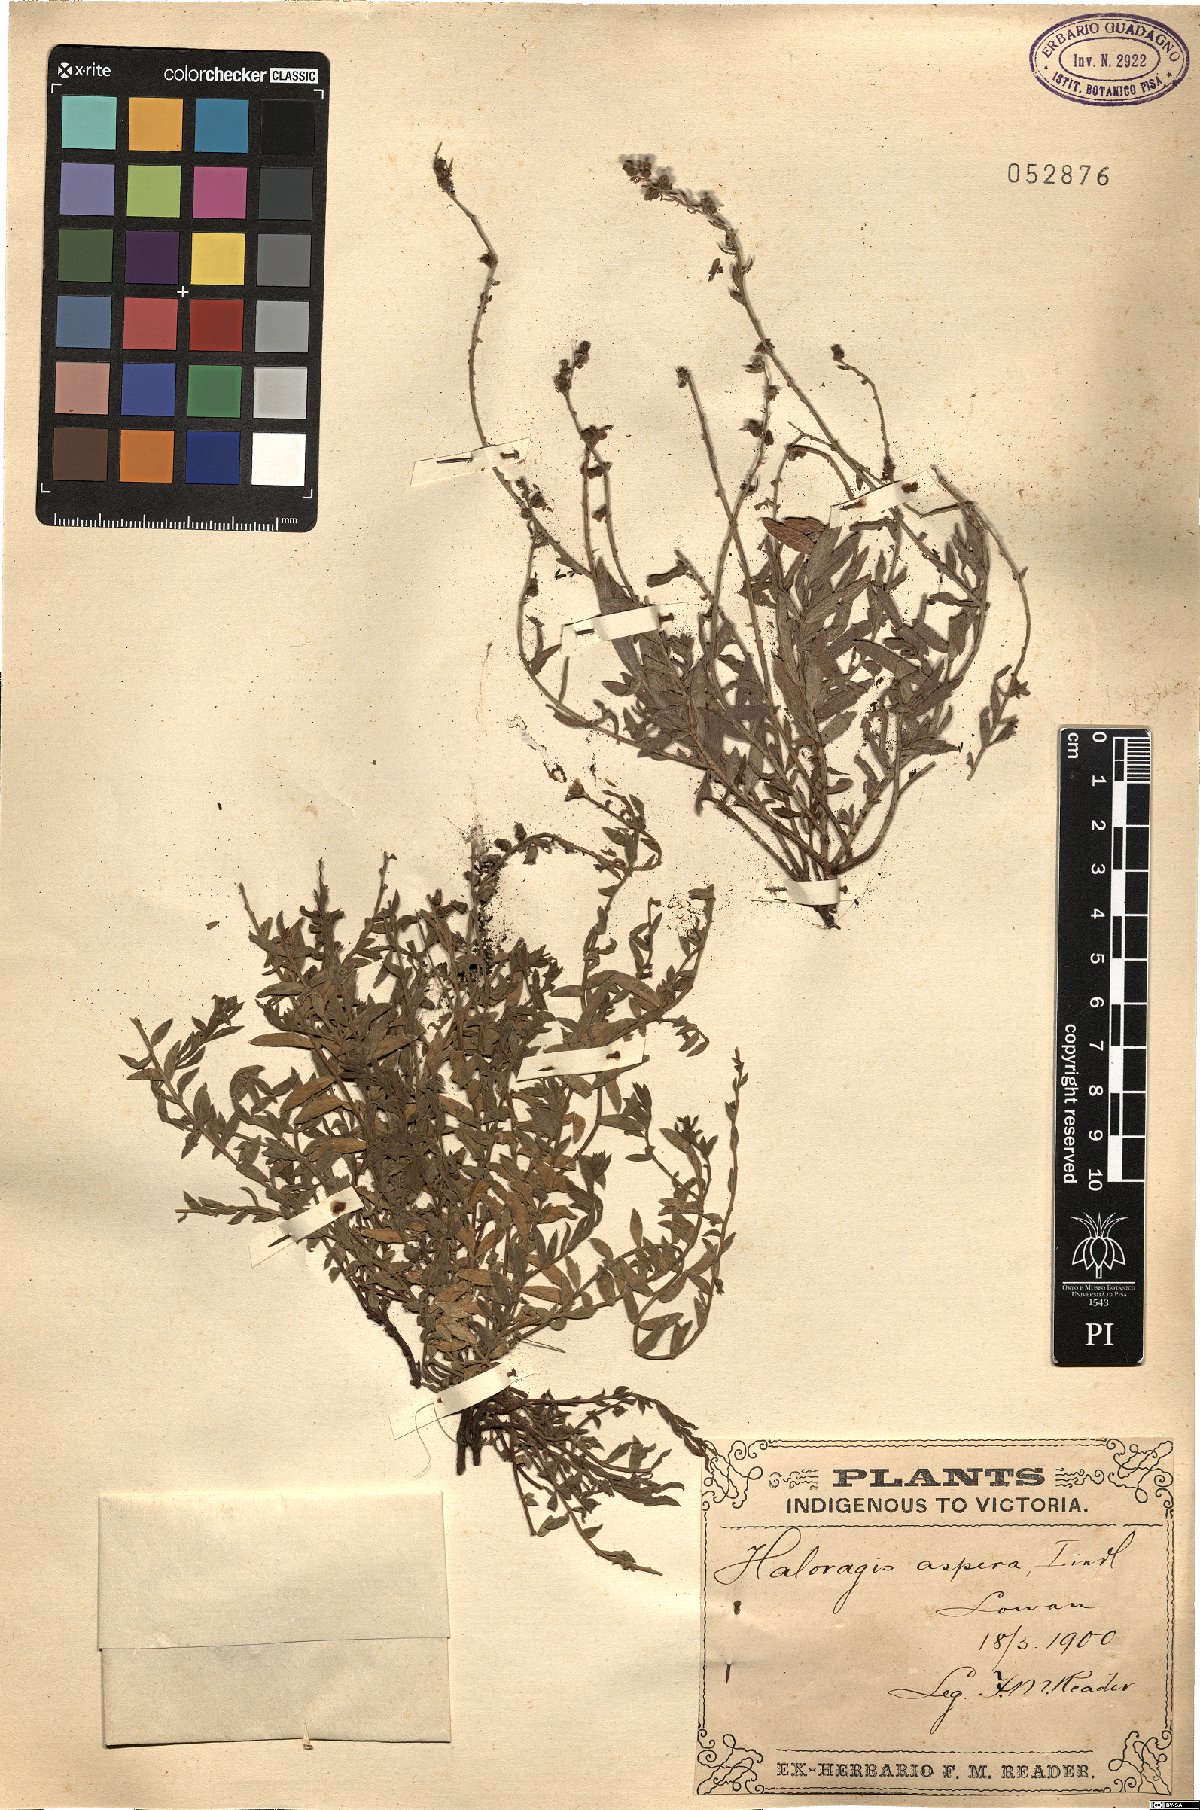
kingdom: Plantae
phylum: Tracheophyta
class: Magnoliopsida
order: Saxifragales
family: Haloragaceae
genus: Haloragis
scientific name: Haloragis aspera
